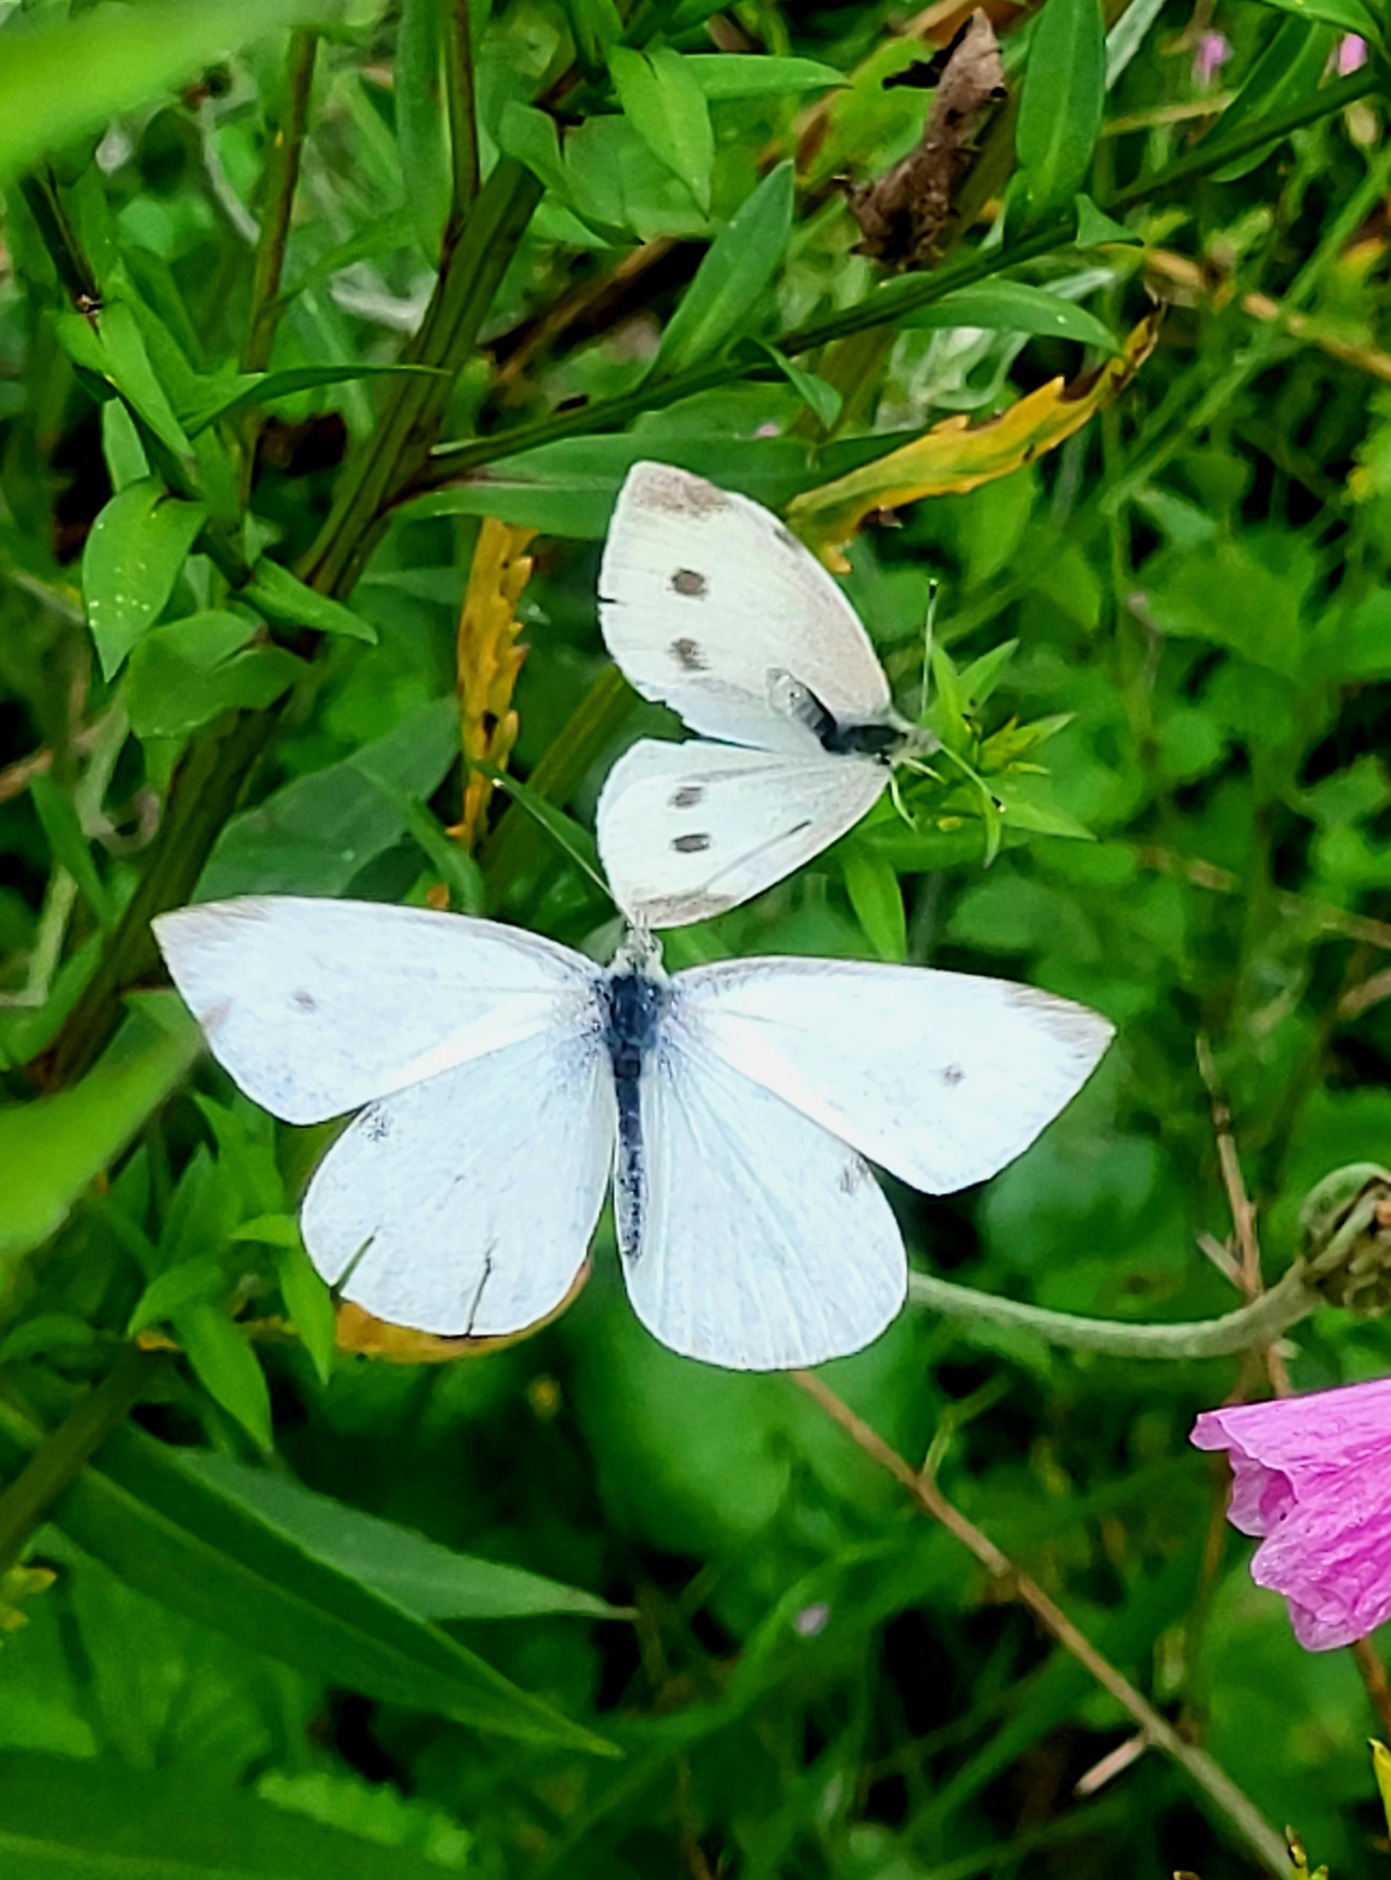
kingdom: Animalia
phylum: Arthropoda
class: Insecta
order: Lepidoptera
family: Pieridae
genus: Pieris
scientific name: Pieris rapae
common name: Lille kålsommerfugl
